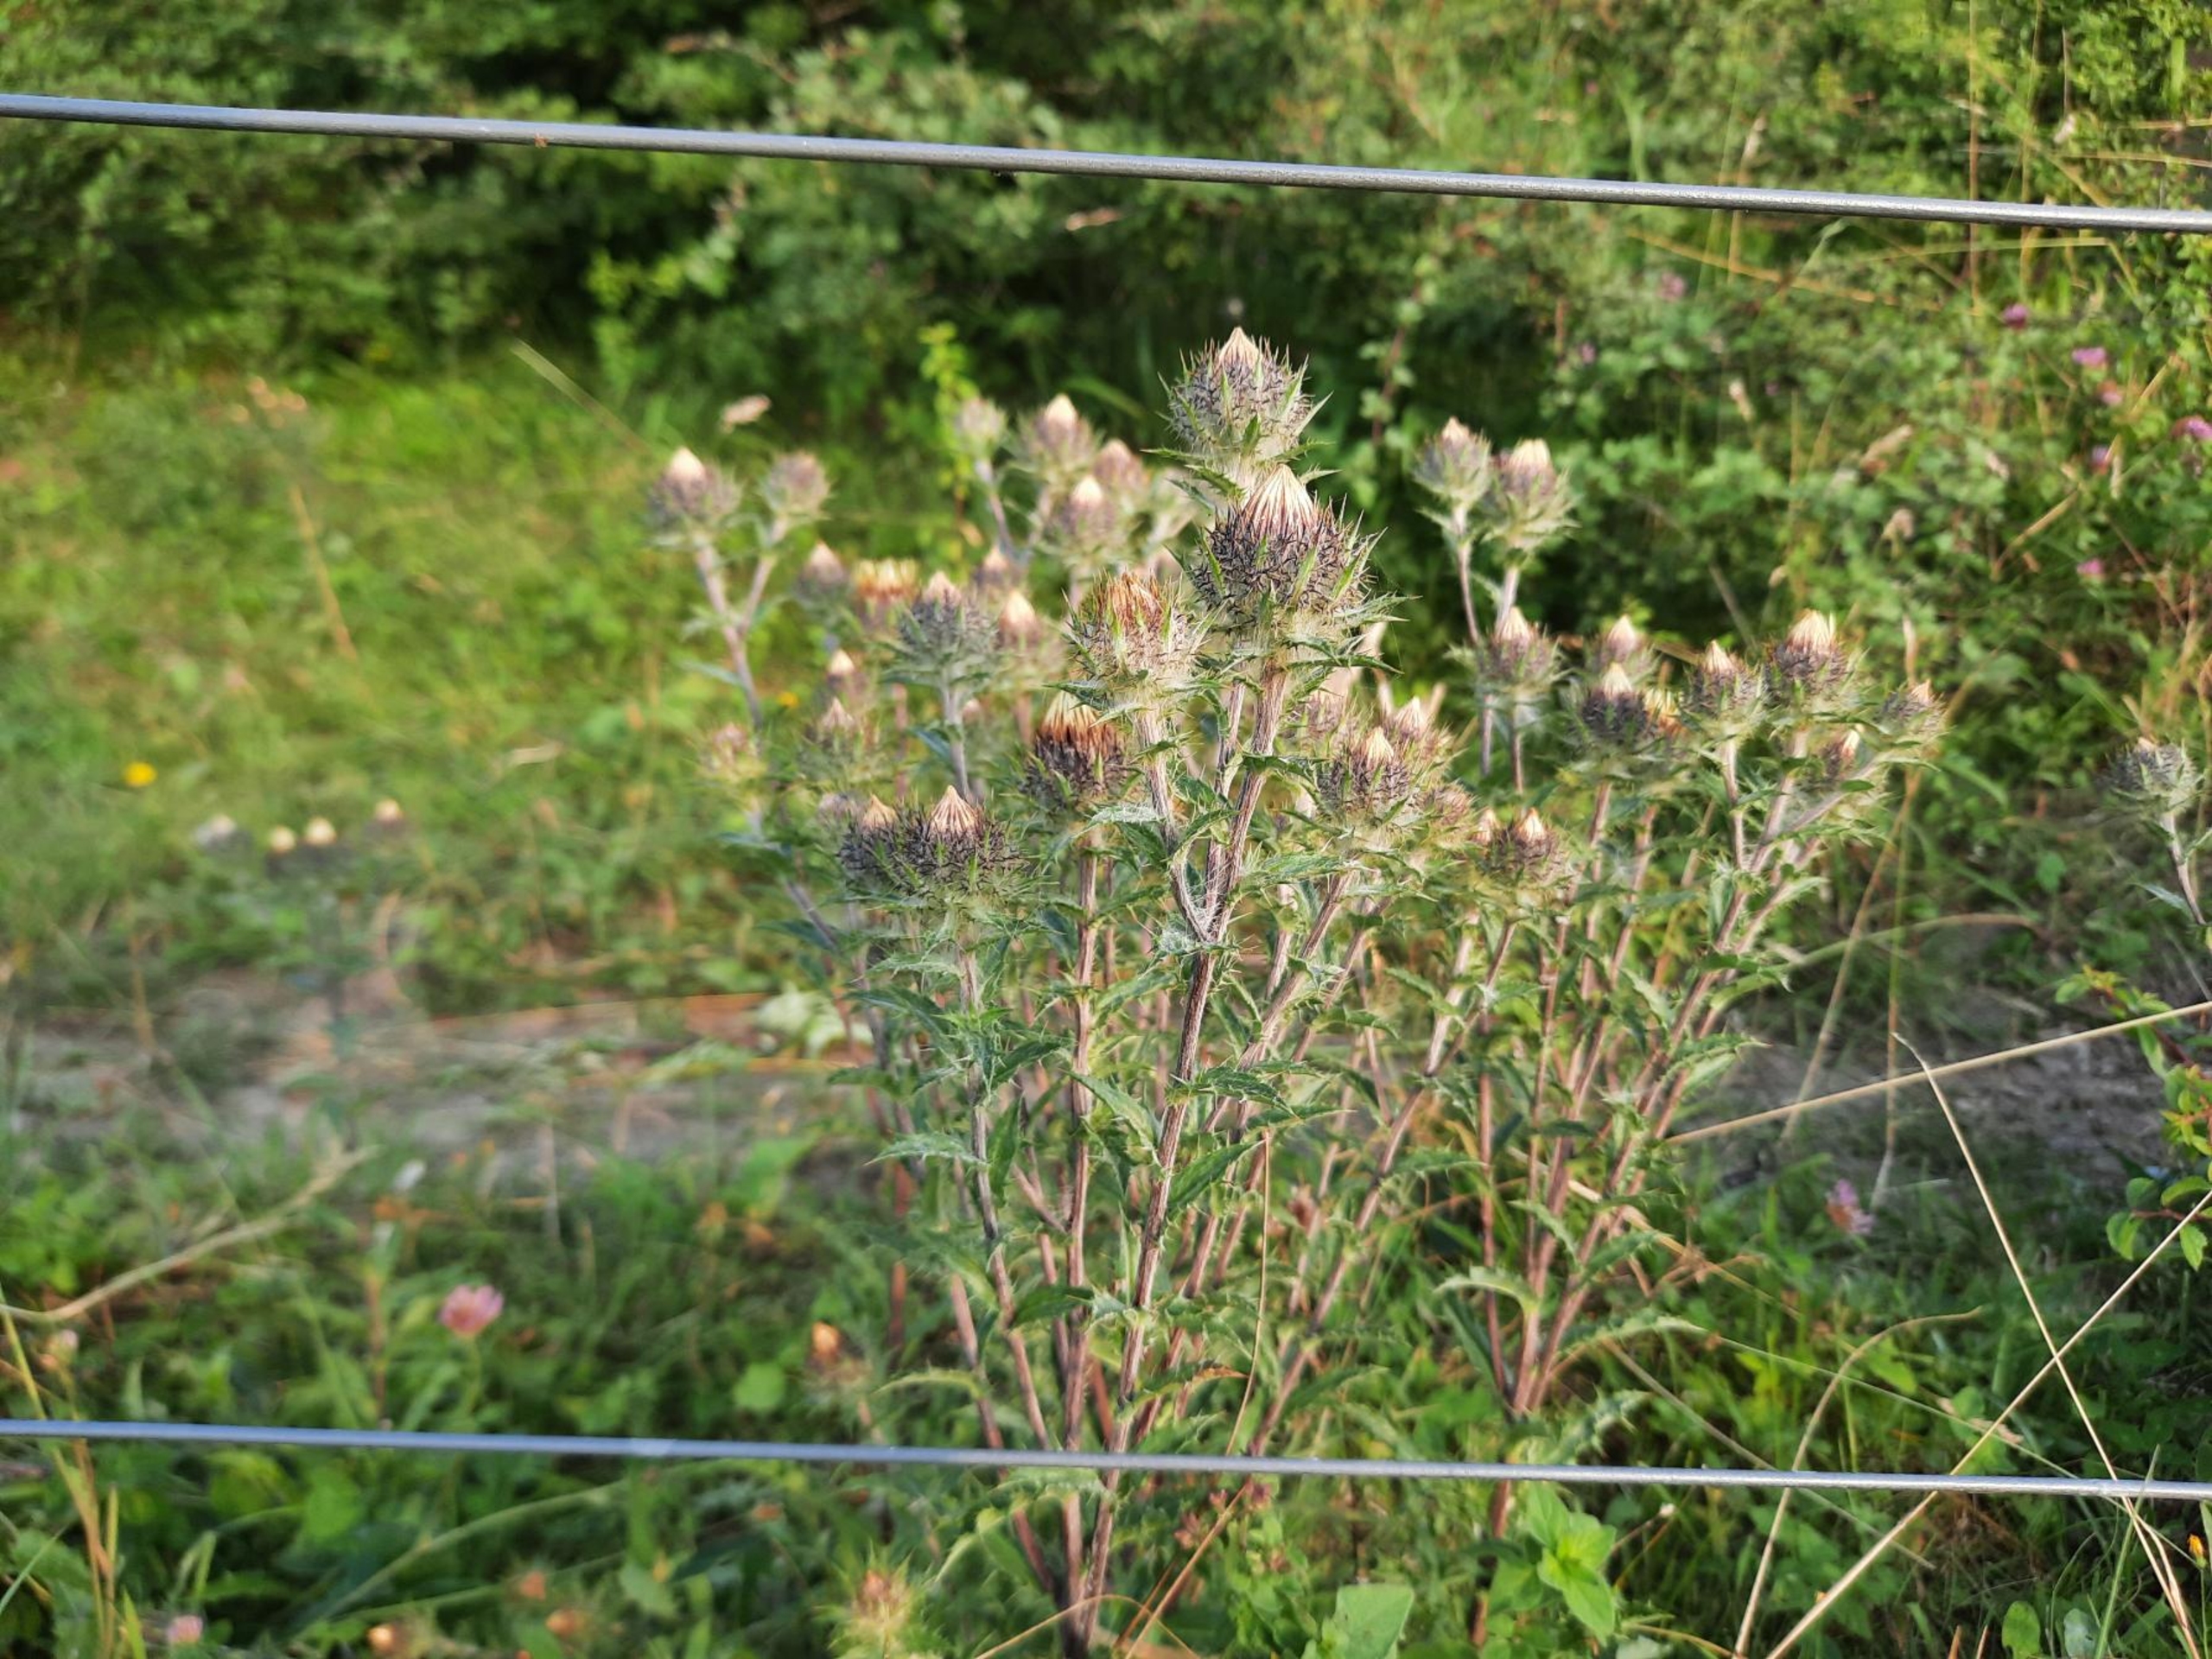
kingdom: Plantae
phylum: Tracheophyta
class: Magnoliopsida
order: Asterales
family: Asteraceae
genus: Carlina
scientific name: Carlina vulgaris
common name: Bakketidsel
